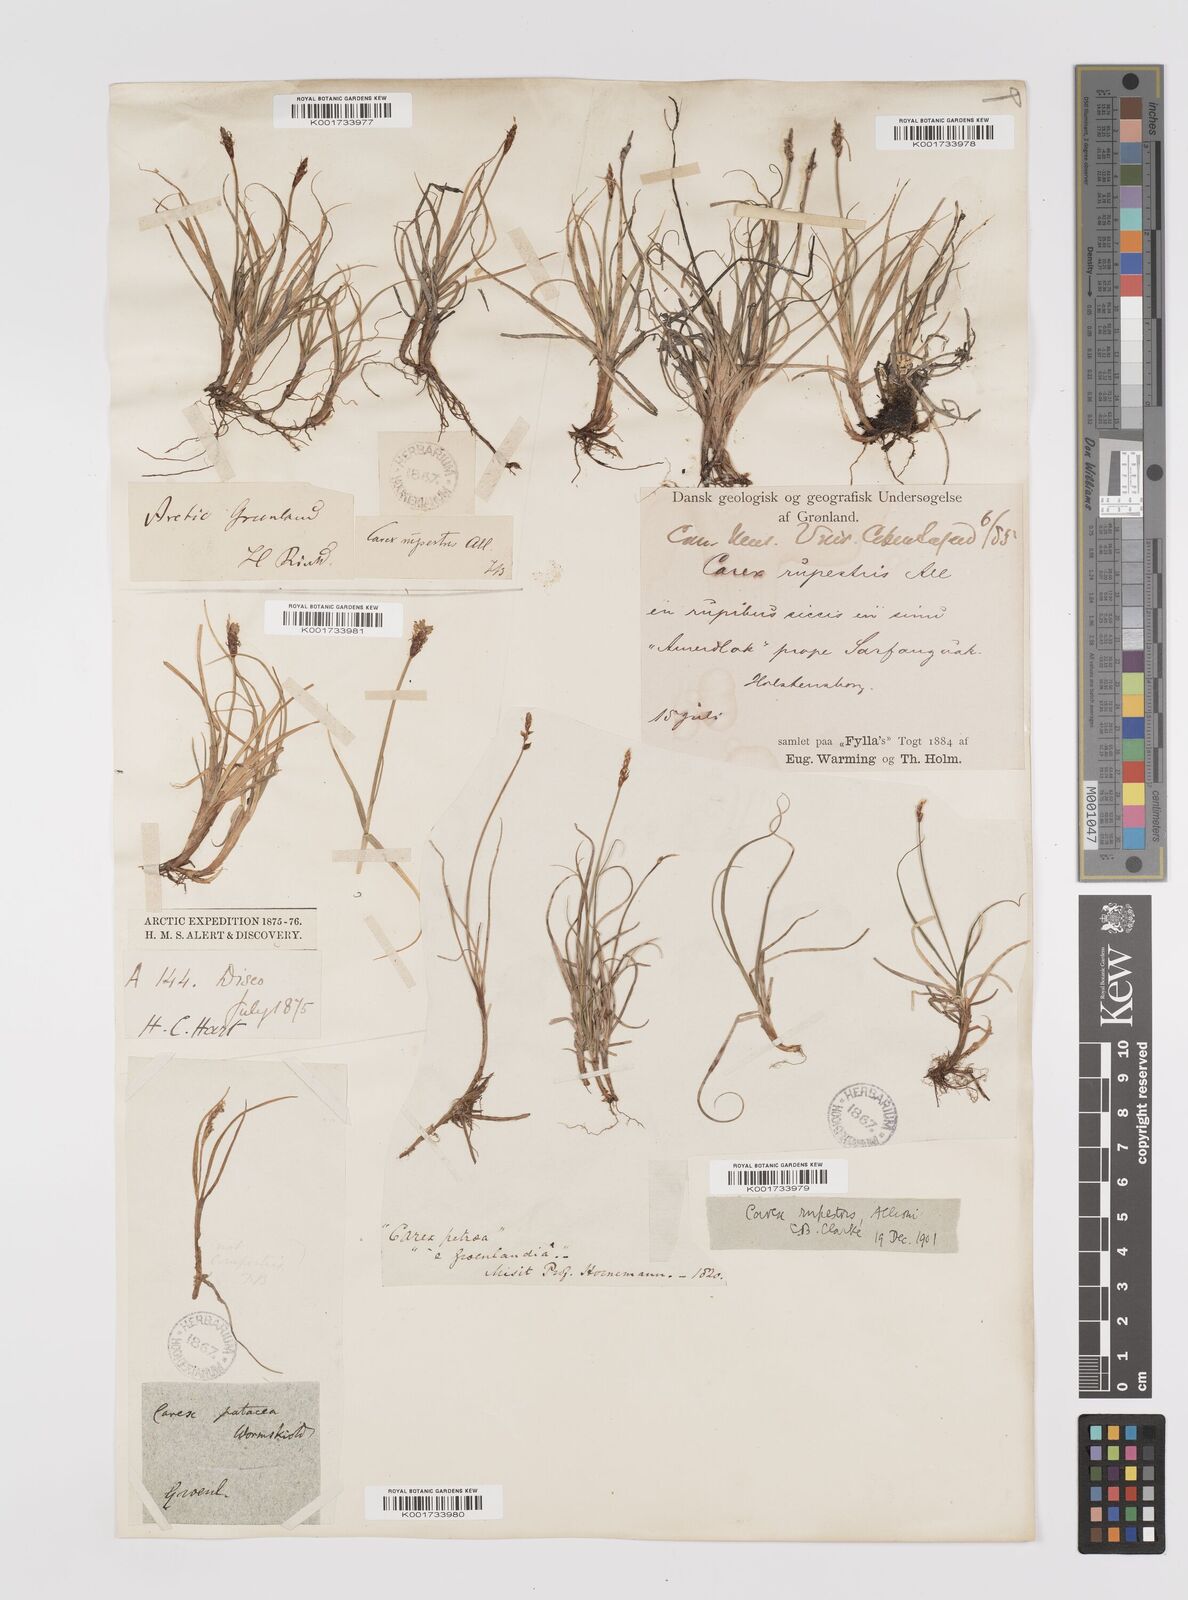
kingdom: Plantae
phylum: Tracheophyta
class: Liliopsida
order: Poales
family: Cyperaceae
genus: Carex
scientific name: Carex rupestris
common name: Rock sedge
